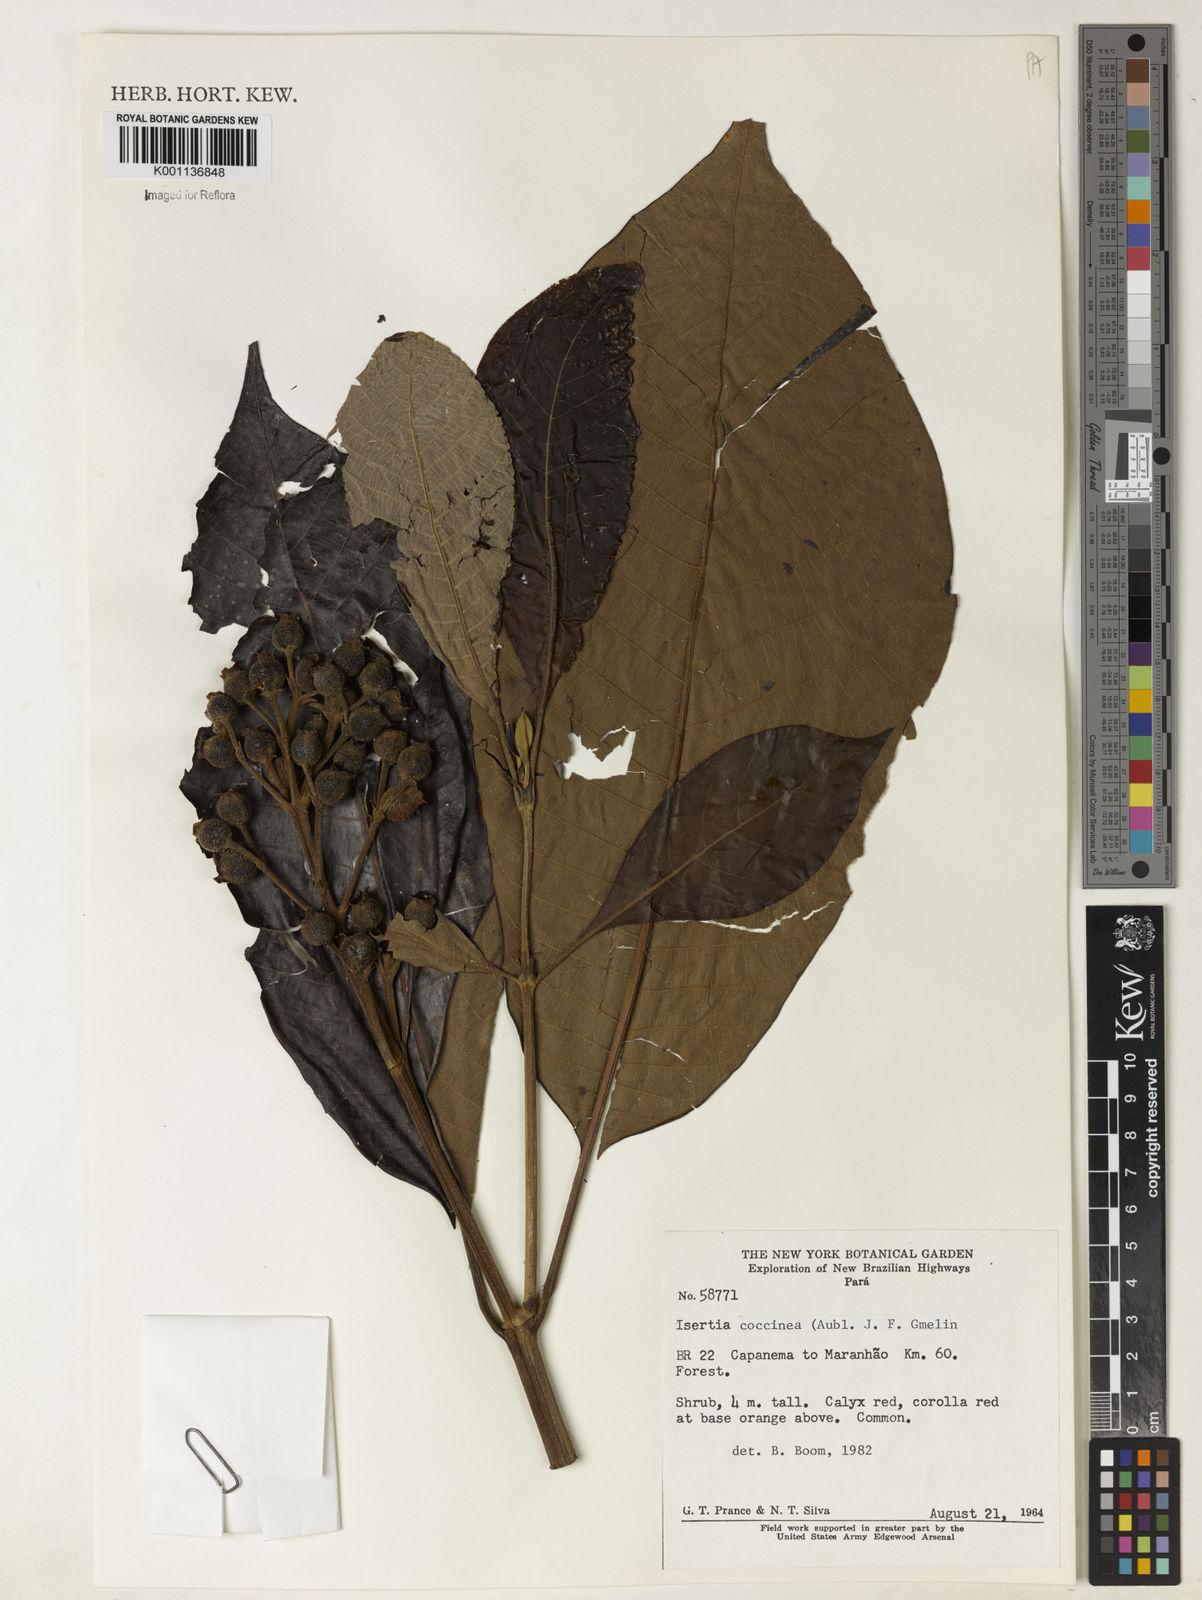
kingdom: Plantae
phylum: Tracheophyta
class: Magnoliopsida
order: Gentianales
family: Rubiaceae
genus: Isertia
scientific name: Isertia coccinea
